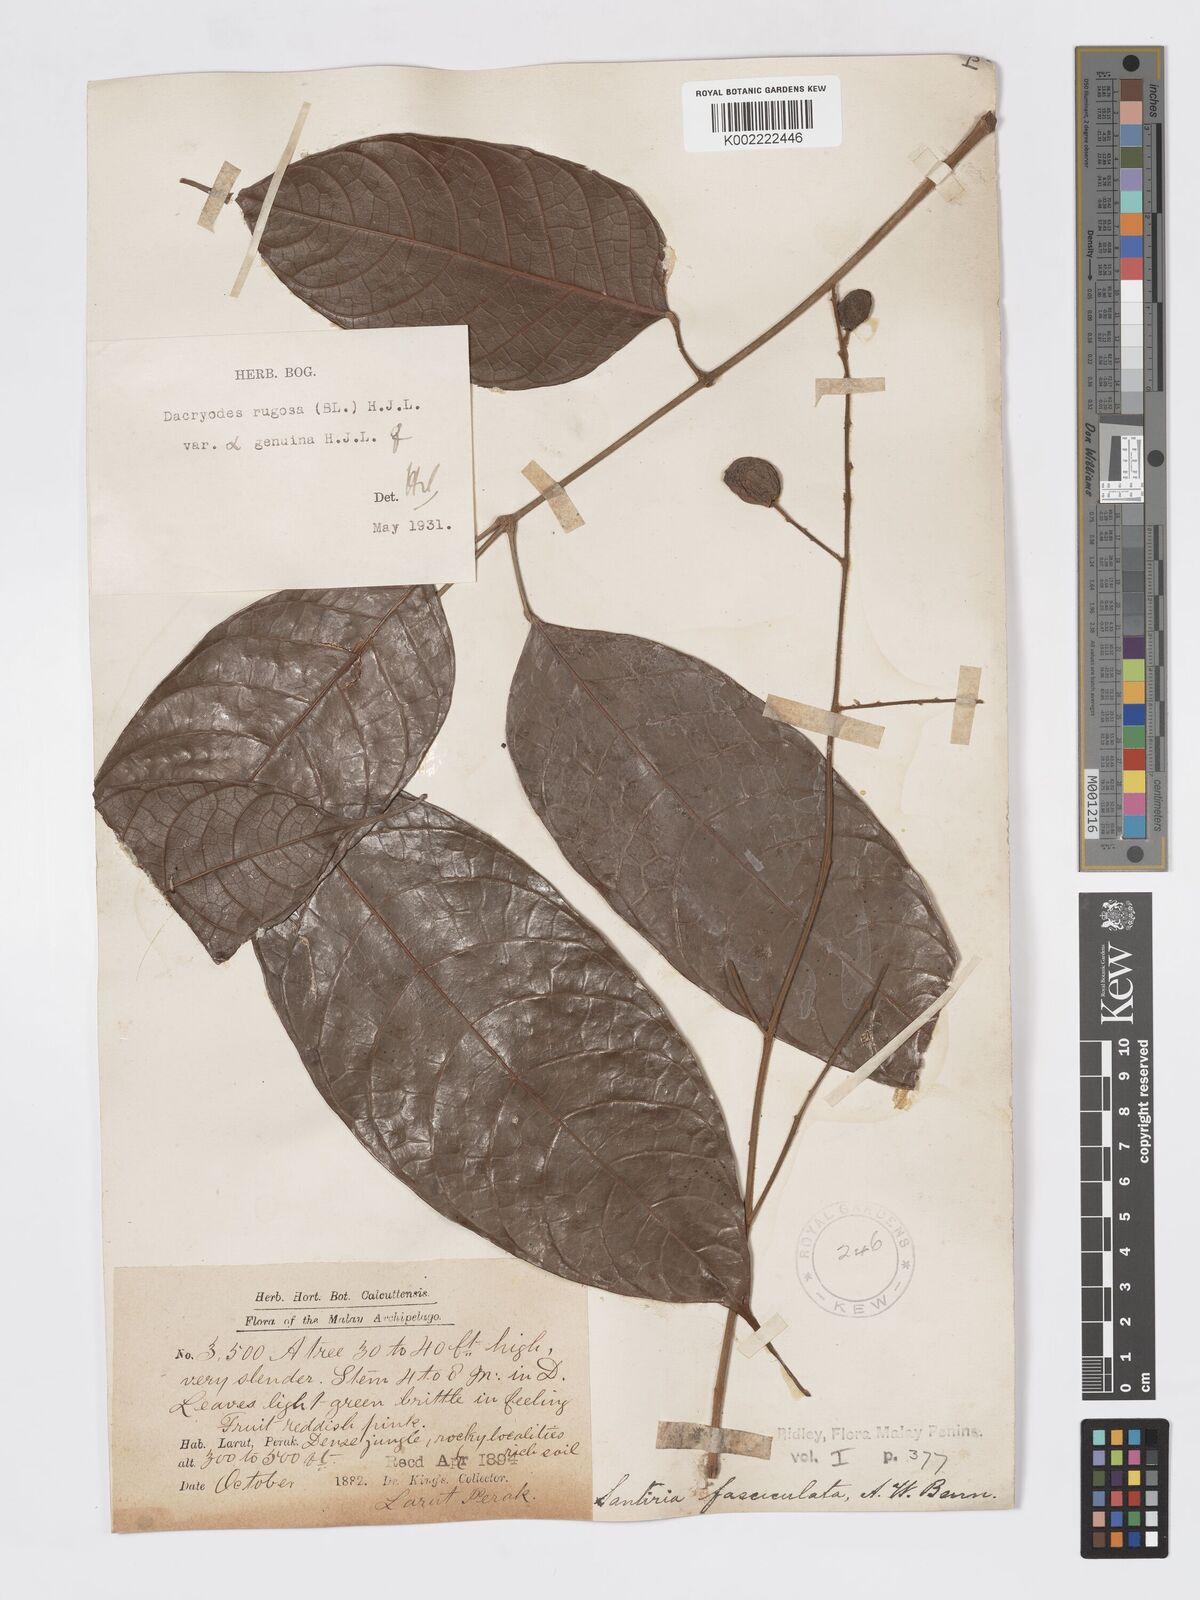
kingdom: Plantae
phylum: Tracheophyta
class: Magnoliopsida
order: Sapindales
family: Burseraceae
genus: Dacryodes
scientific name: Dacryodes rugosa
